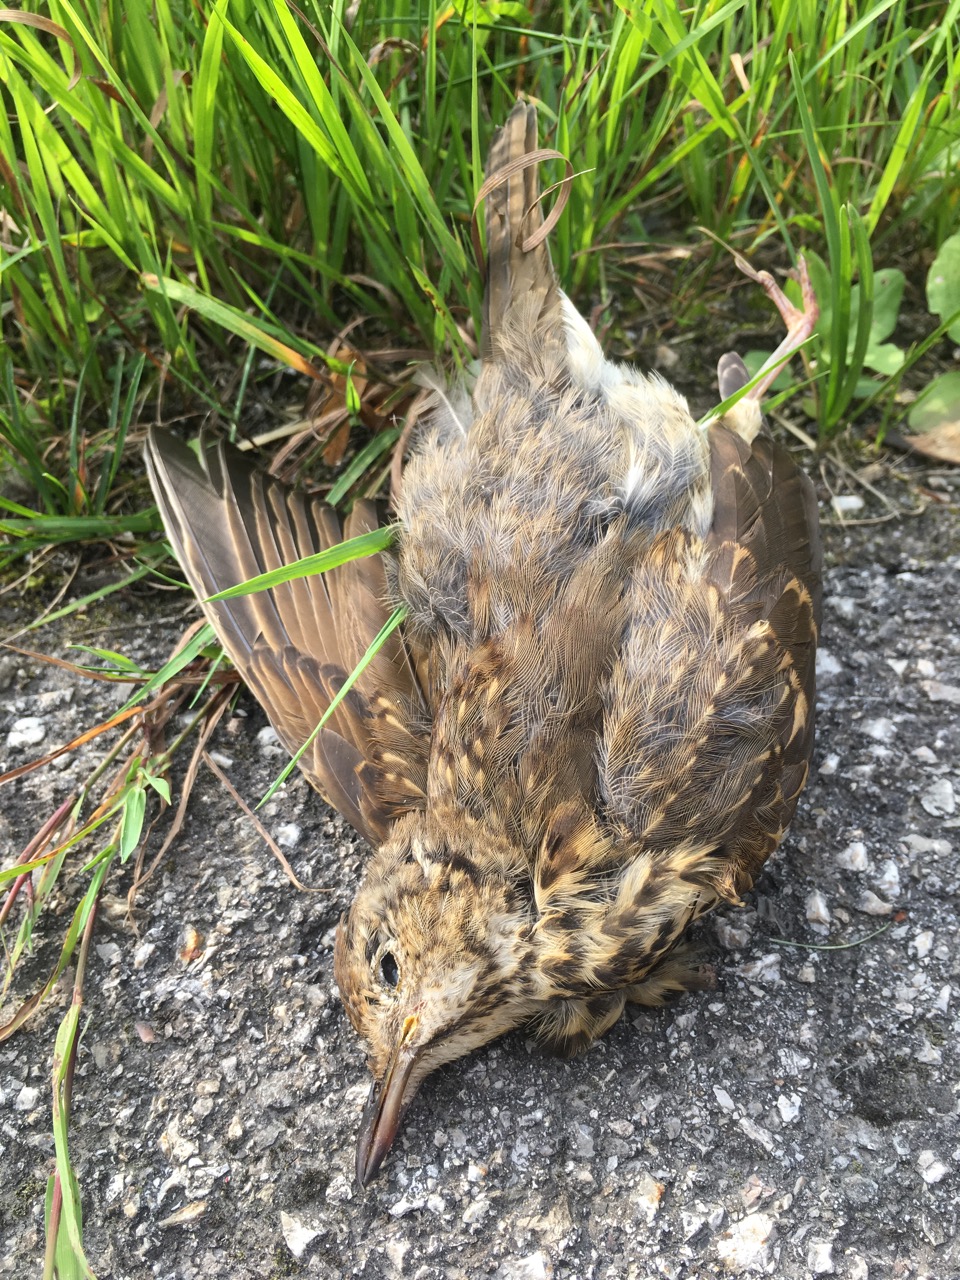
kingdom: Animalia
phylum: Chordata
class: Aves
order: Passeriformes
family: Turdidae
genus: Turdus
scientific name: Turdus philomelos
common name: Song thrush
